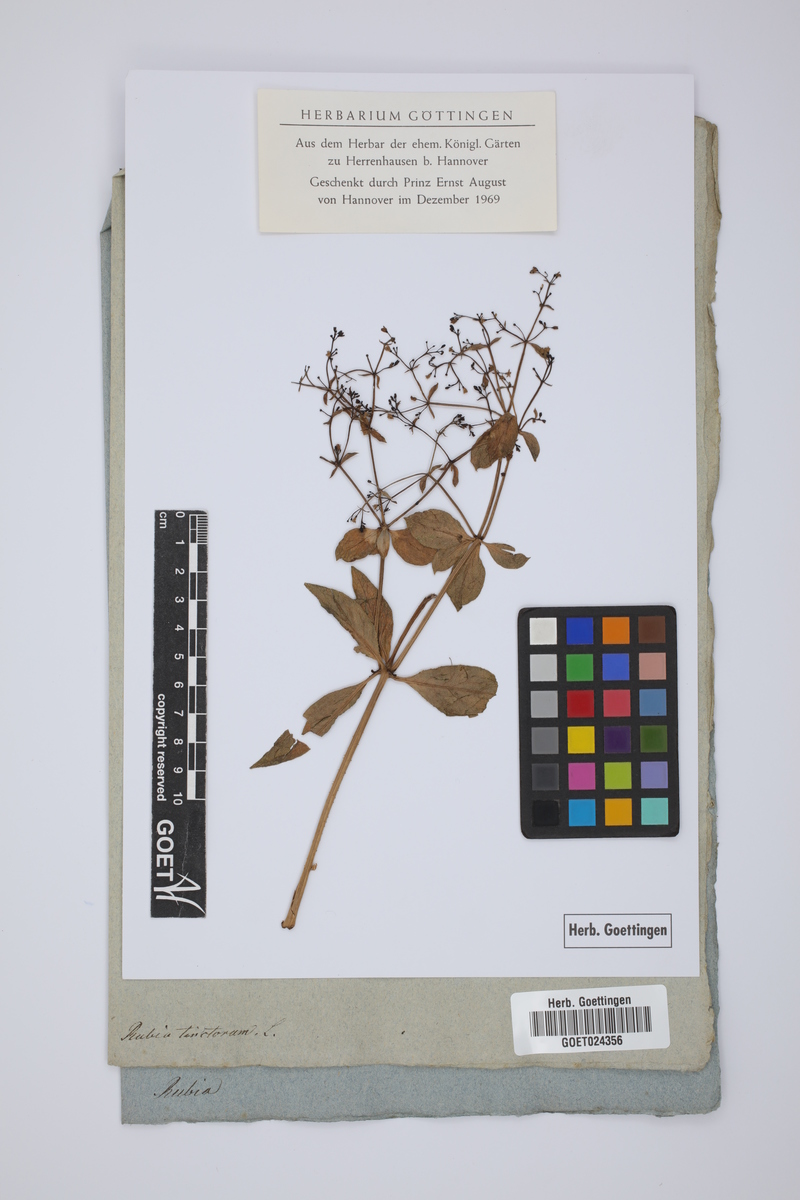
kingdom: Plantae
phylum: Tracheophyta
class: Magnoliopsida
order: Gentianales
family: Rubiaceae
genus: Rubia
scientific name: Rubia tinctorum
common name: Dyer's madder
